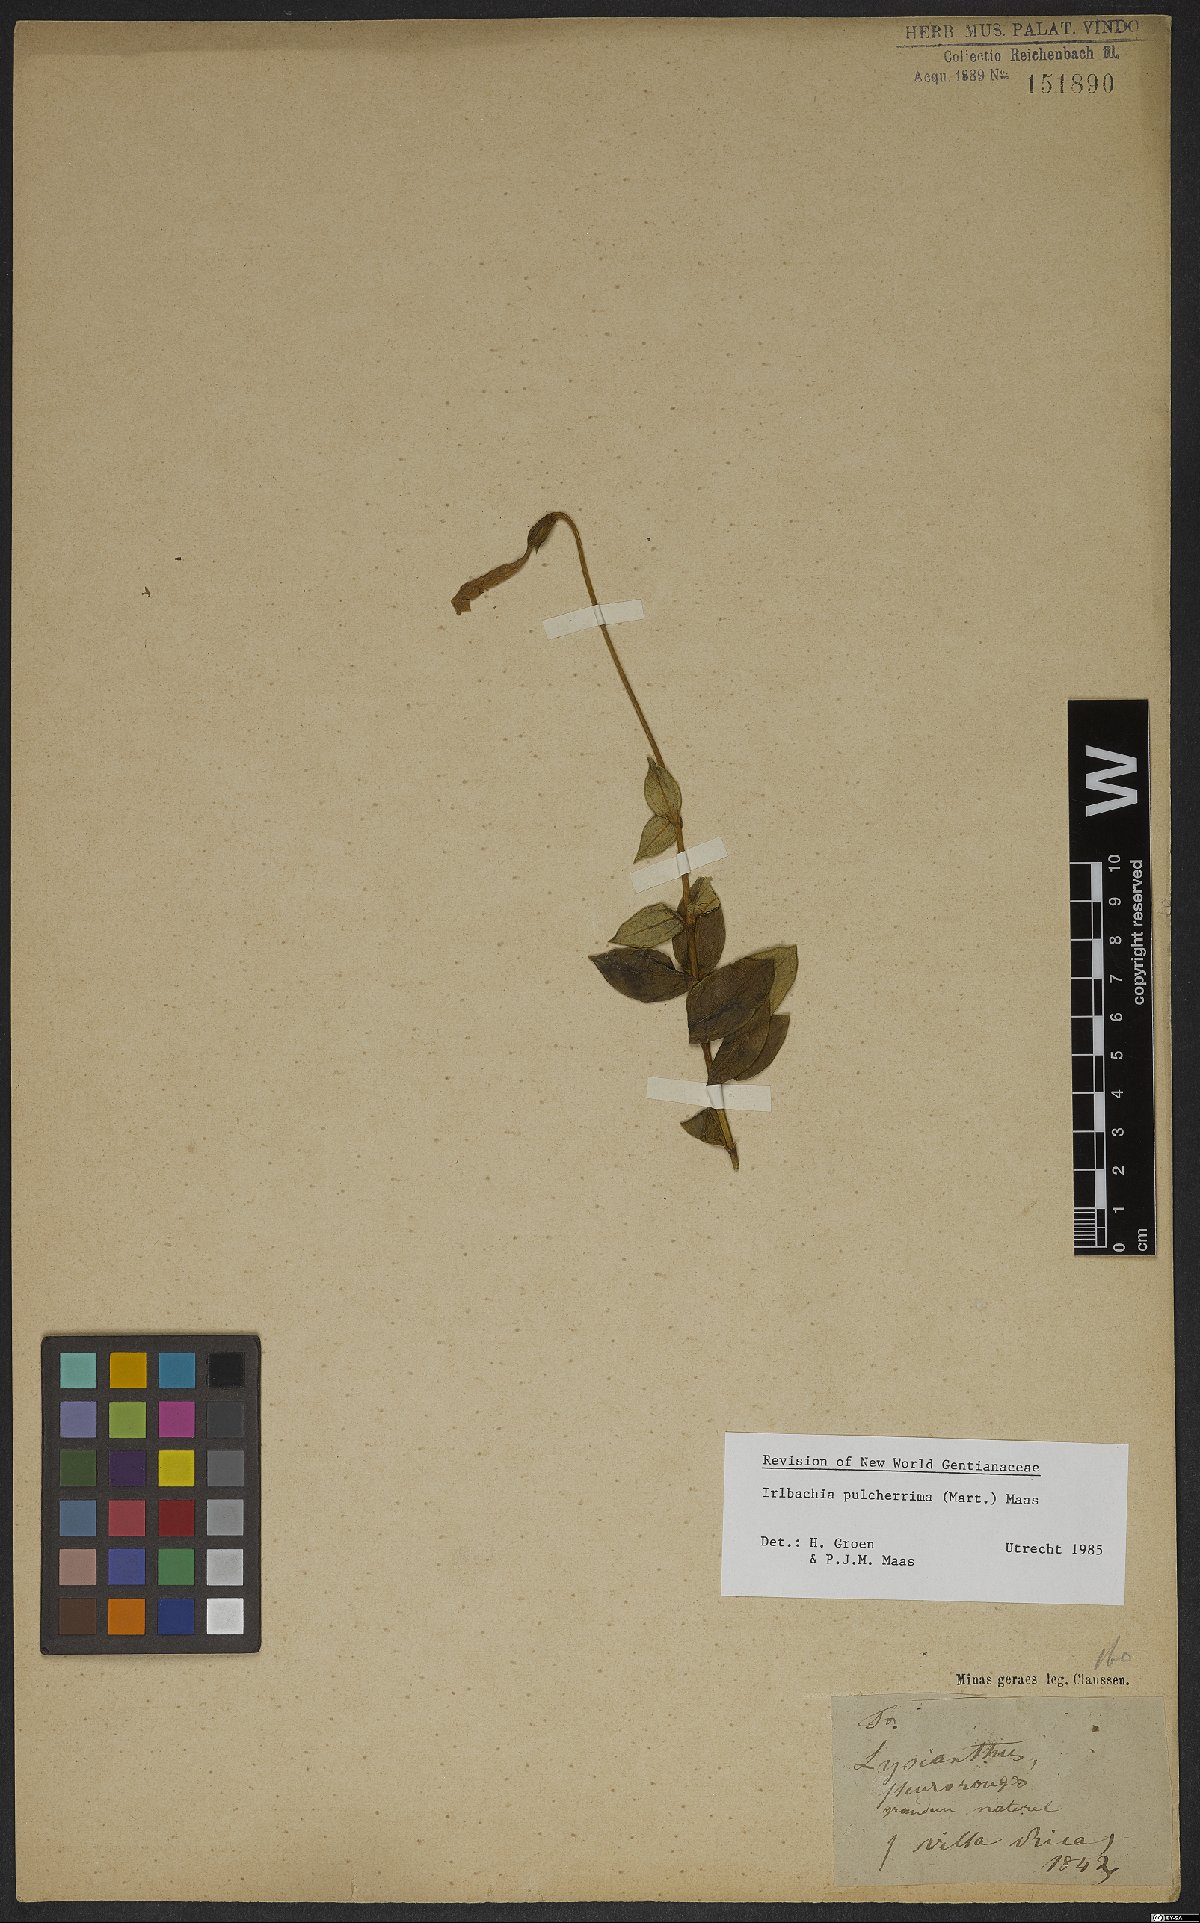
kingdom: Plantae
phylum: Tracheophyta
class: Magnoliopsida
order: Gentianales
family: Gentianaceae
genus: Calolisianthus
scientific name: Calolisianthus pulcherrimus
